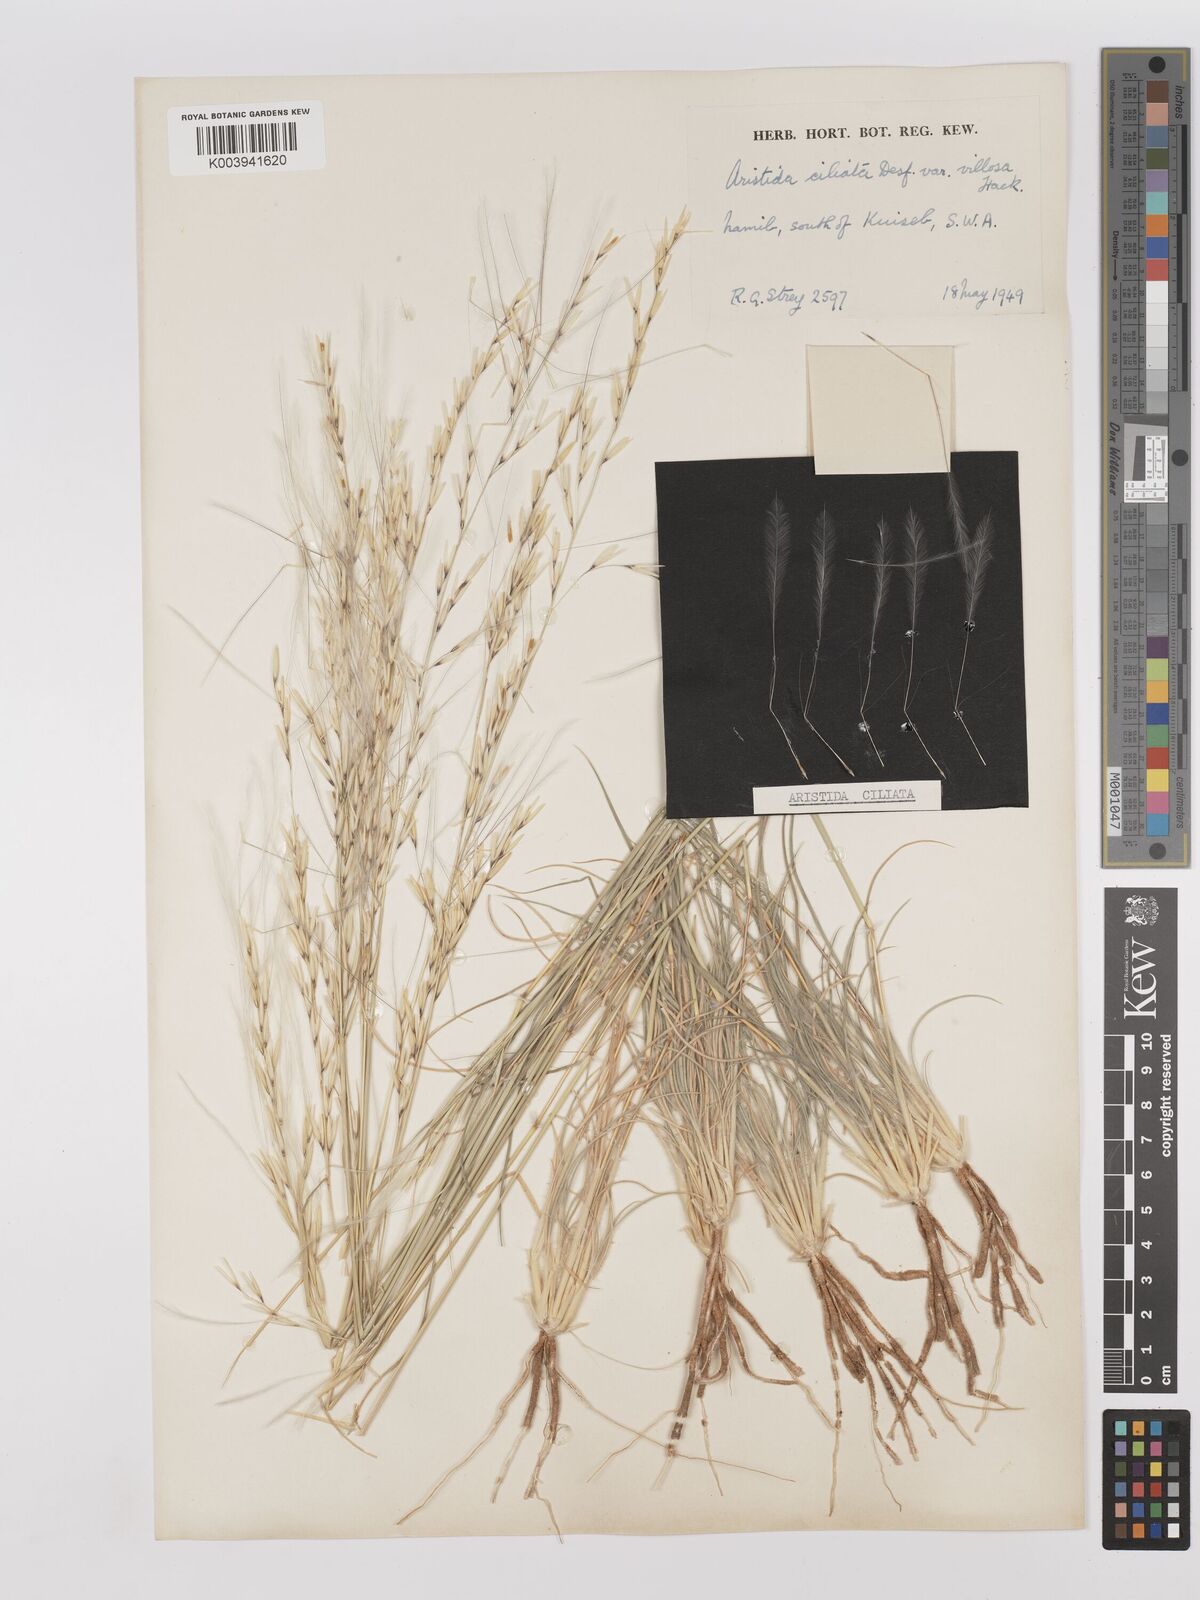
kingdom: Plantae
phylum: Tracheophyta
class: Liliopsida
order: Poales
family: Poaceae
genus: Stipagrostis
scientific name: Stipagrostis ciliata
